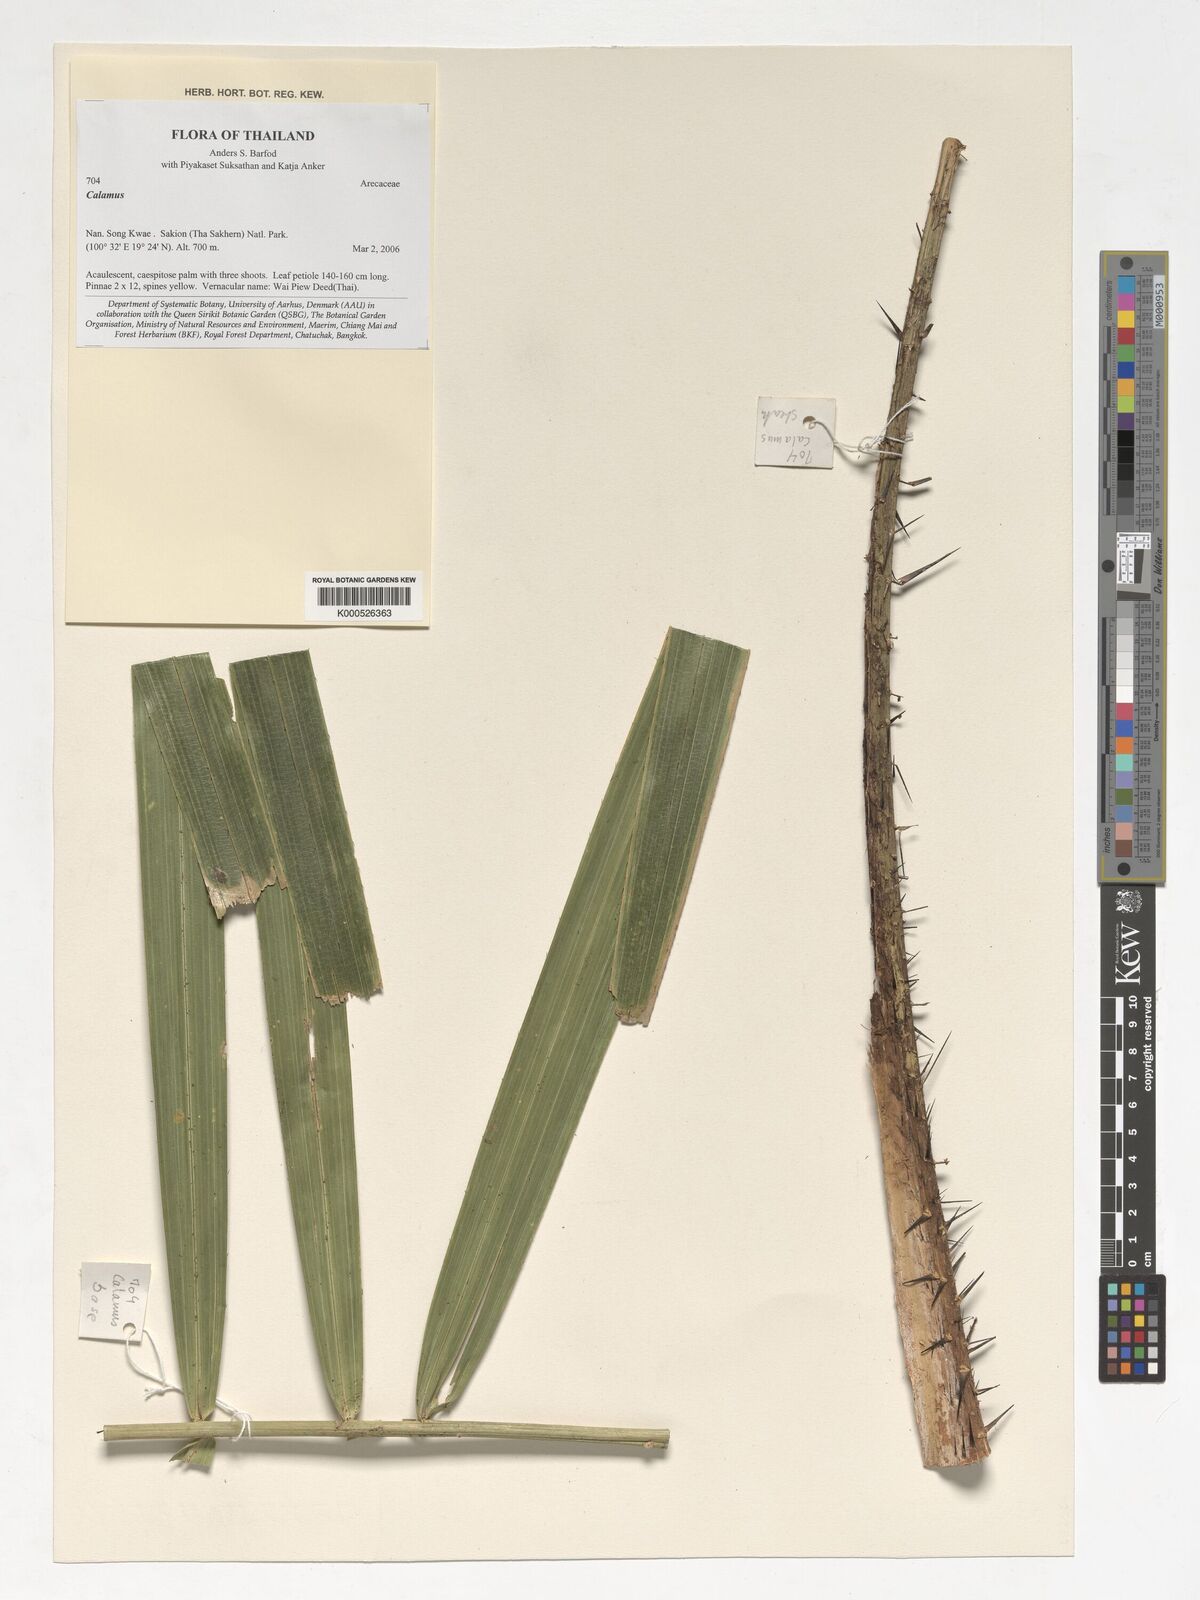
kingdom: Plantae
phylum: Tracheophyta
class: Liliopsida
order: Arecales
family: Arecaceae
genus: Calamus
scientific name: Calamus
